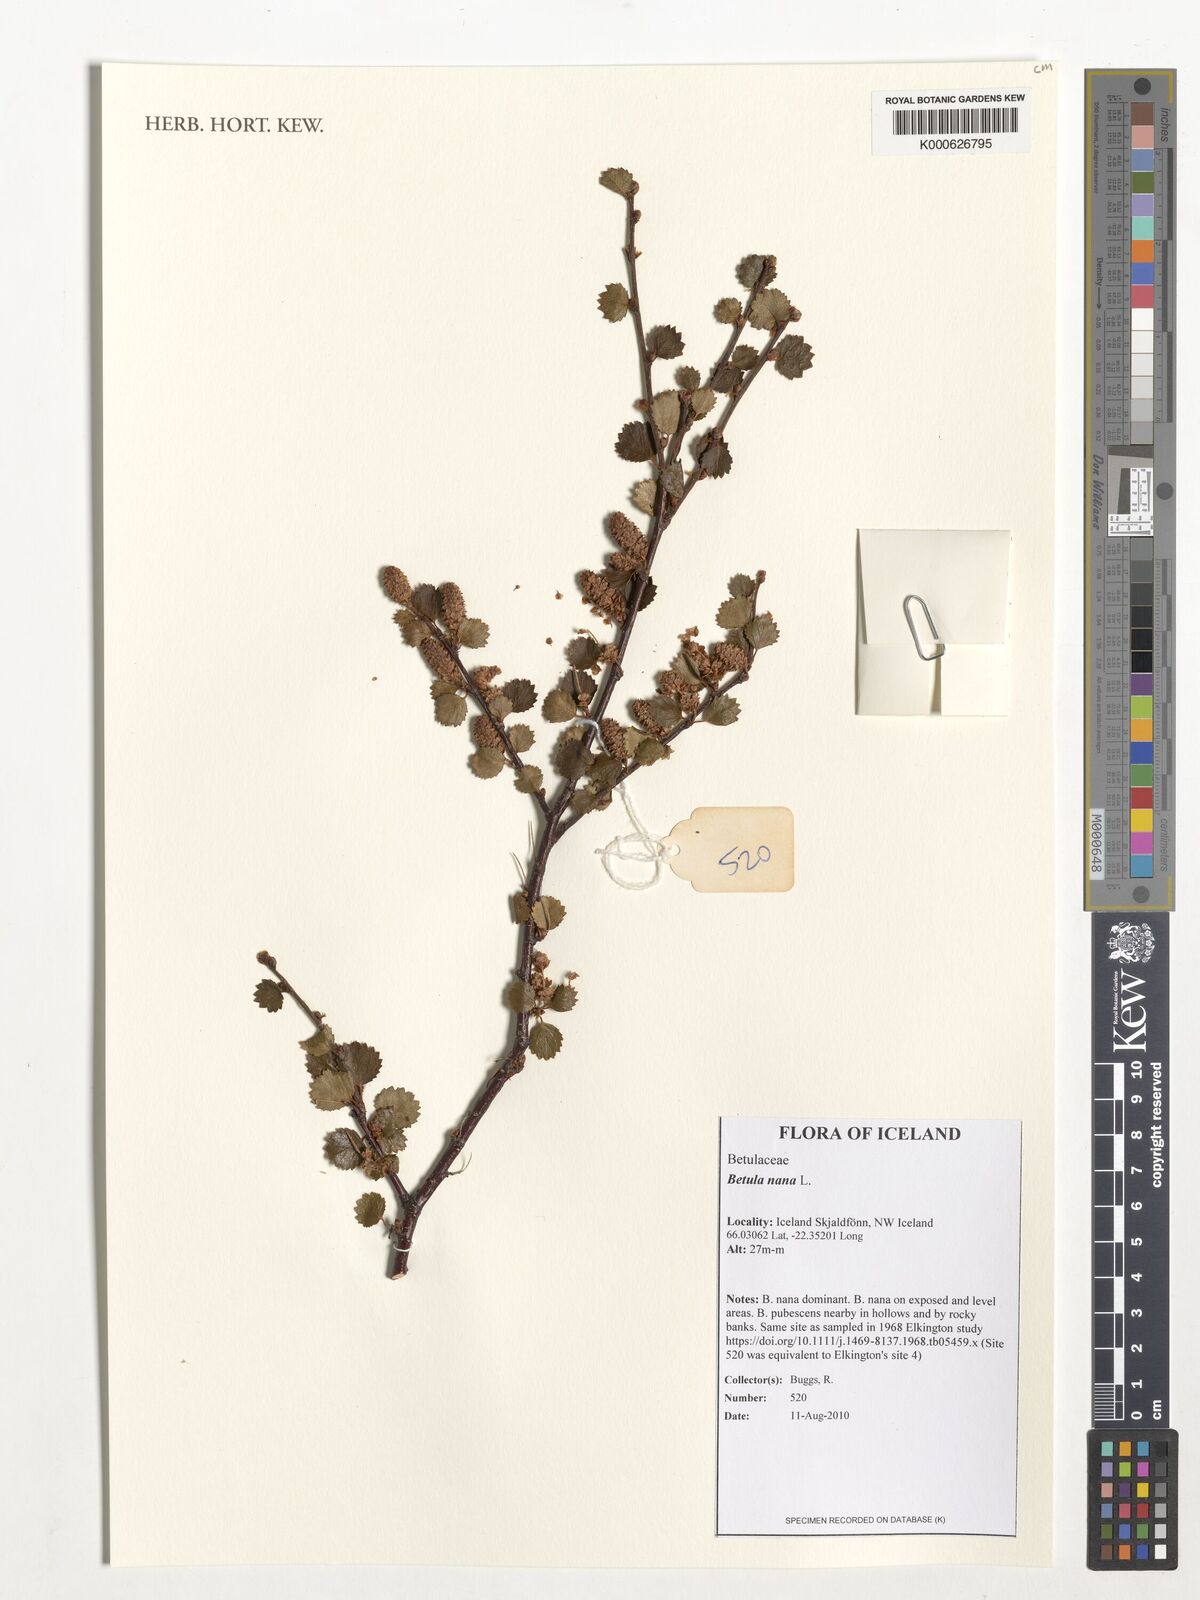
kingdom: Plantae
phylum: Tracheophyta
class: Magnoliopsida
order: Fagales
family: Betulaceae
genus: Betula
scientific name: Betula nana
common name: Arctic dwarf birch
